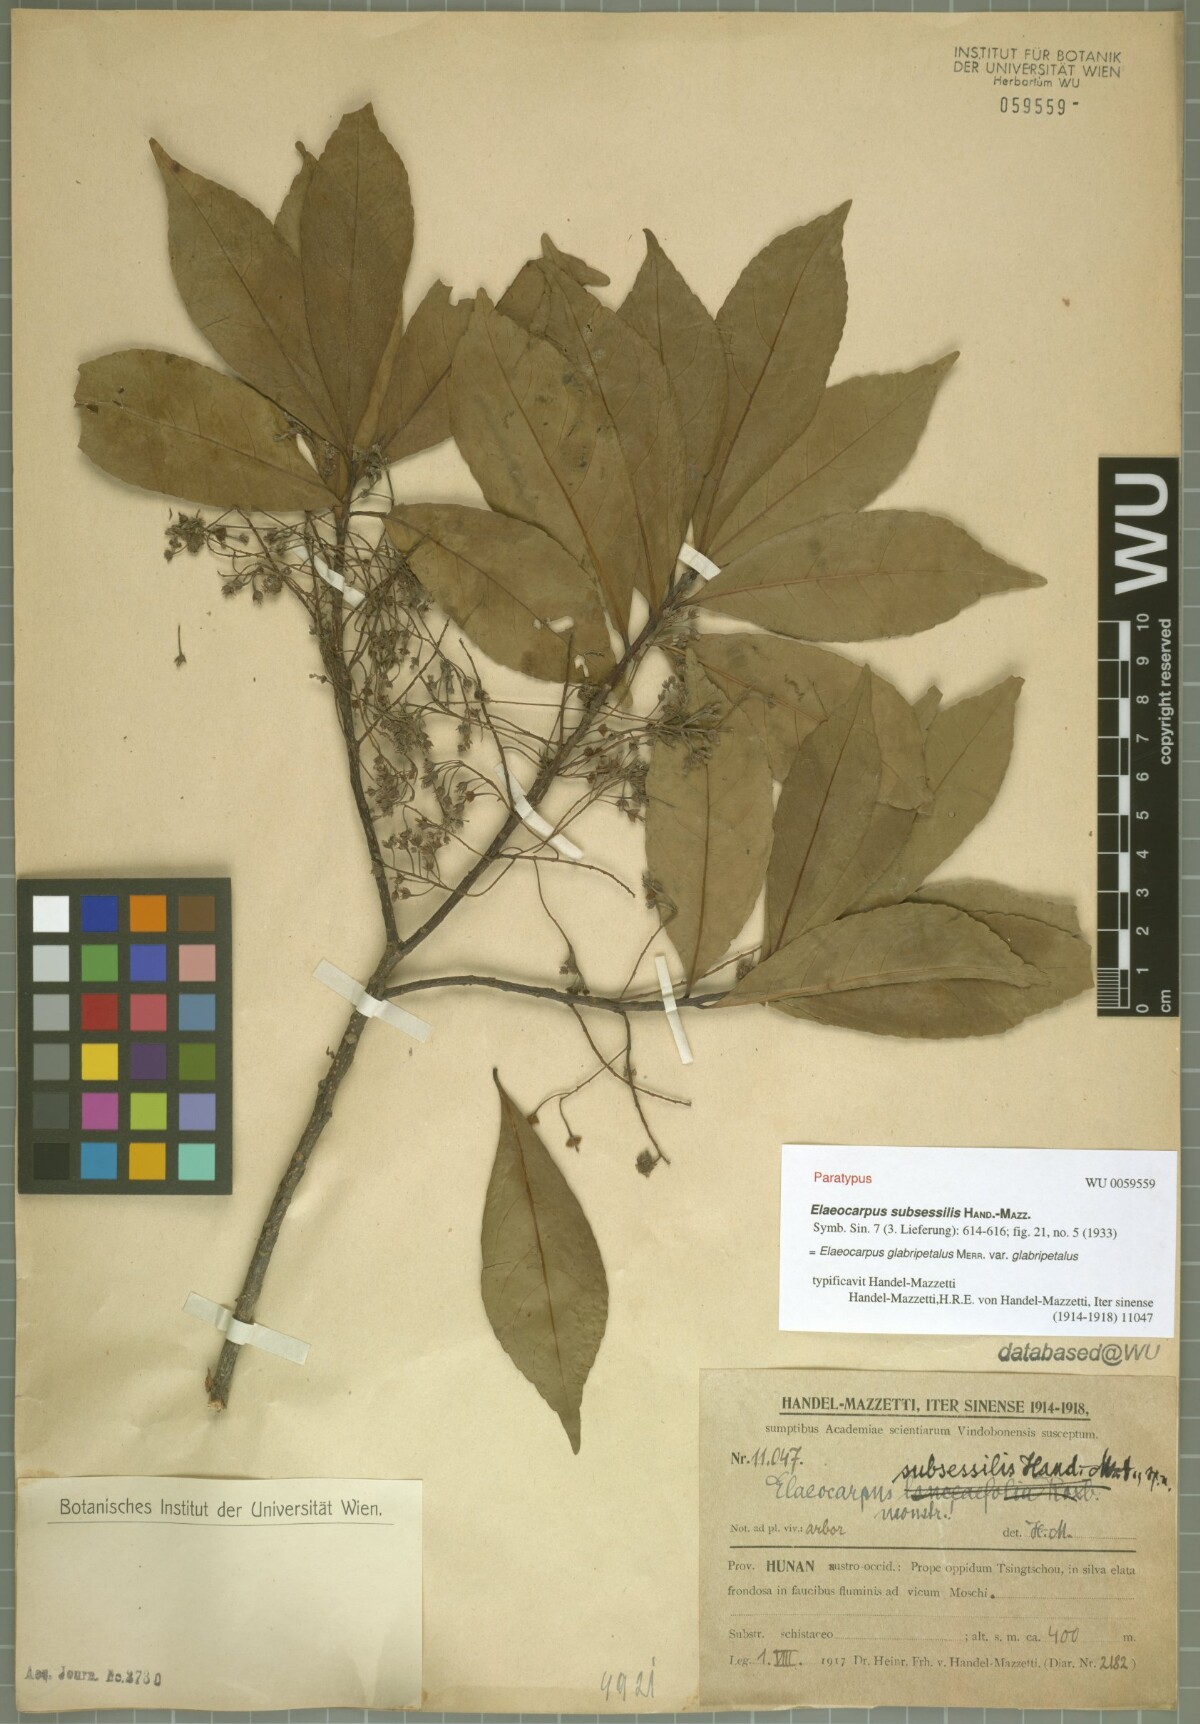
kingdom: Plantae
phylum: Tracheophyta
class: Magnoliopsida
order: Oxalidales
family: Elaeocarpaceae
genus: Elaeocarpus
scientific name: Elaeocarpus glabripetalus
